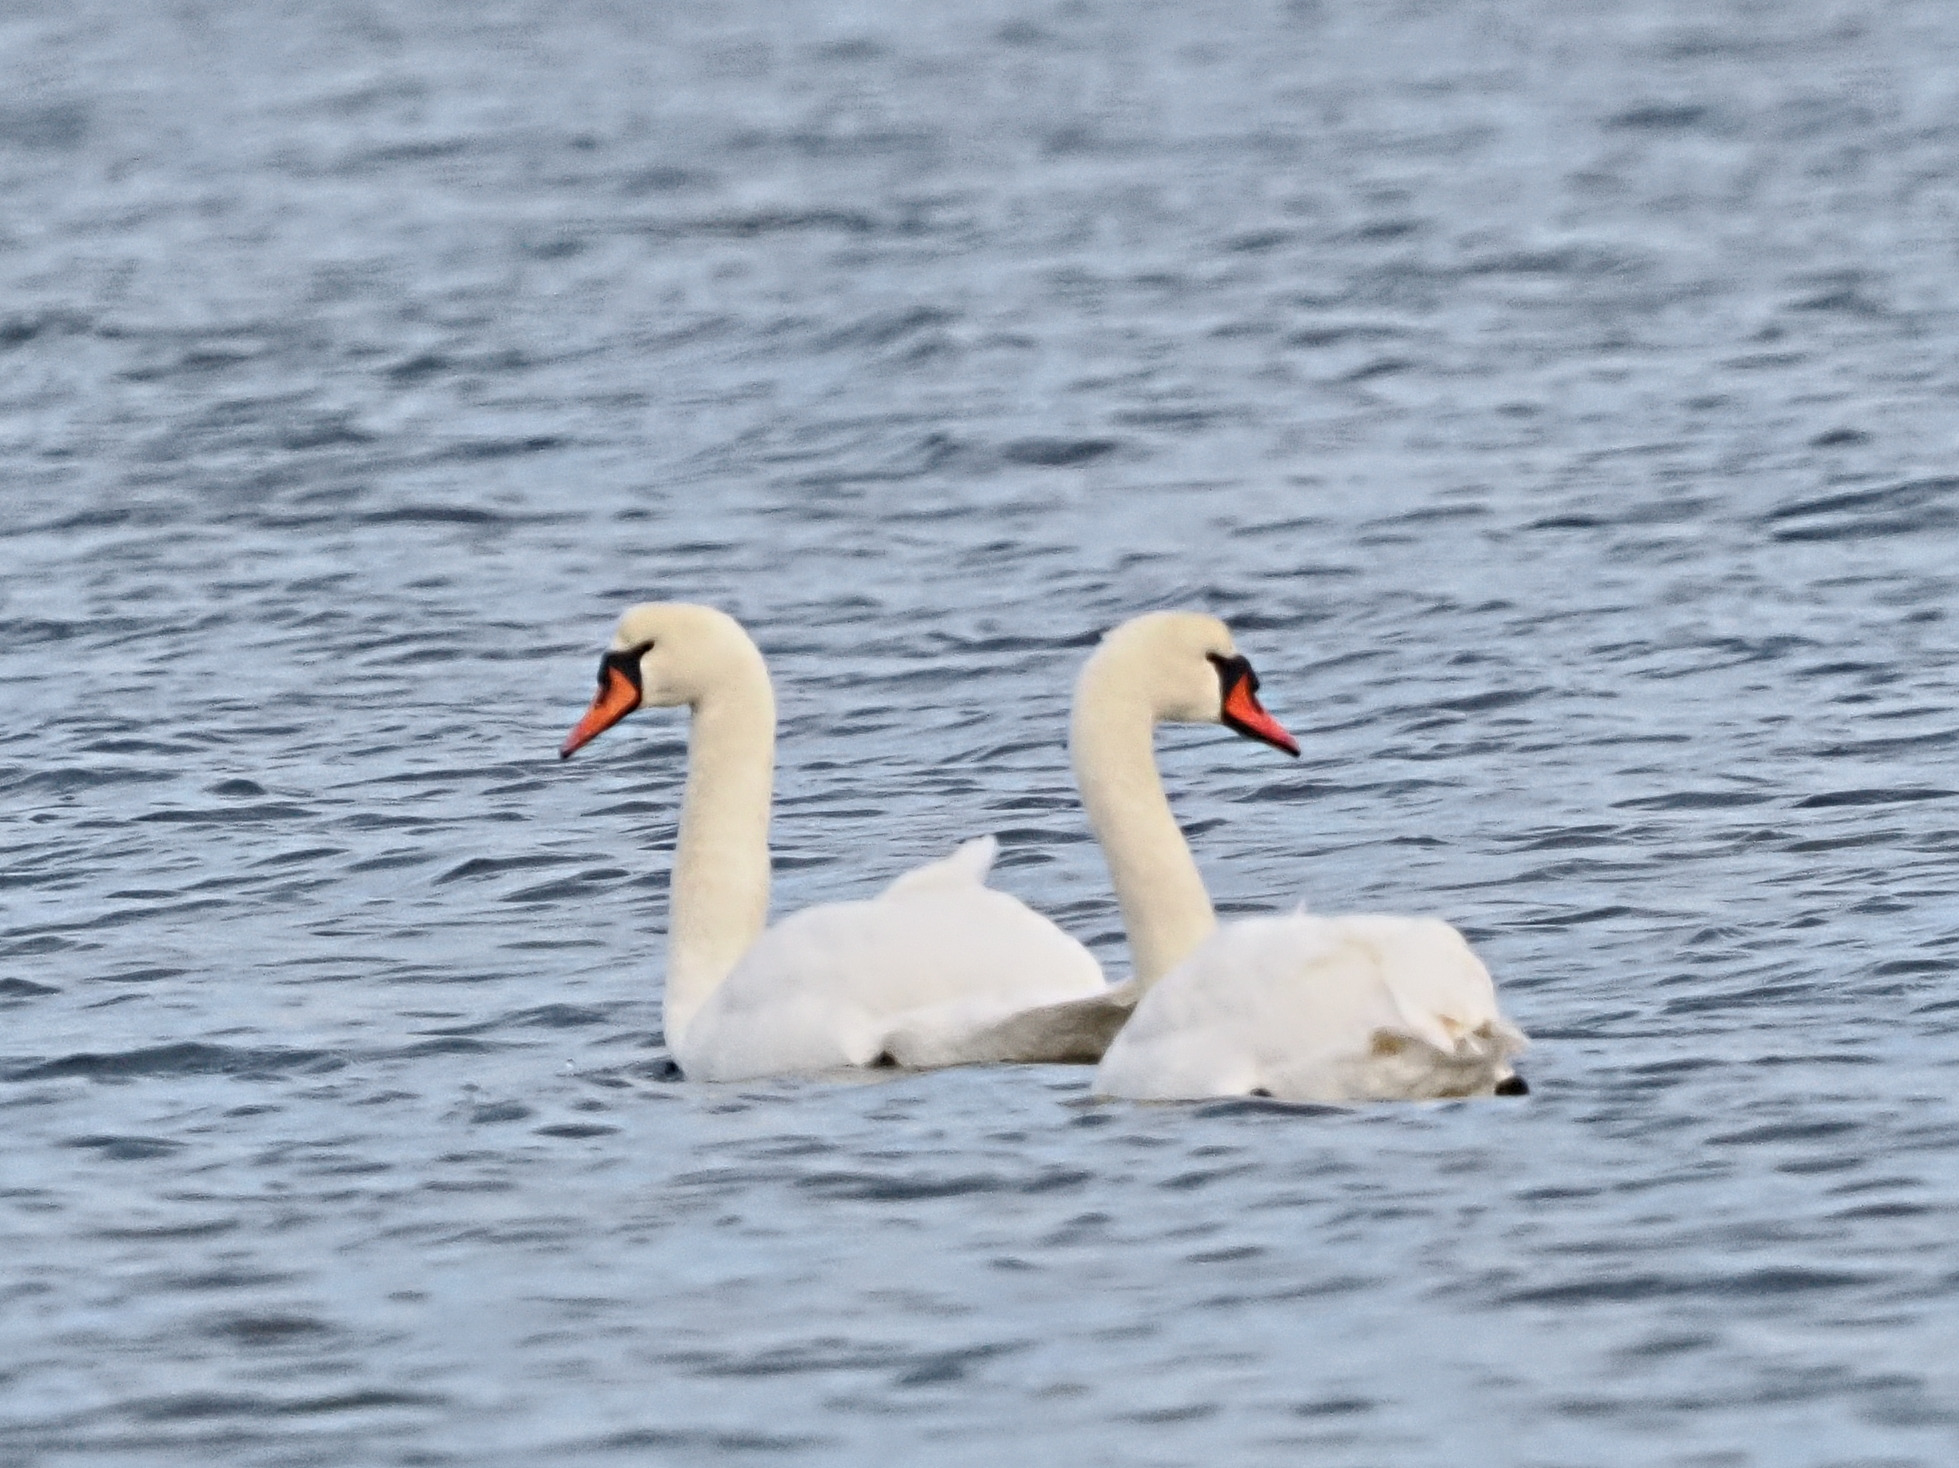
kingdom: Animalia
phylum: Chordata
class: Aves
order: Anseriformes
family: Anatidae
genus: Cygnus
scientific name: Cygnus olor
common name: Knopsvane
